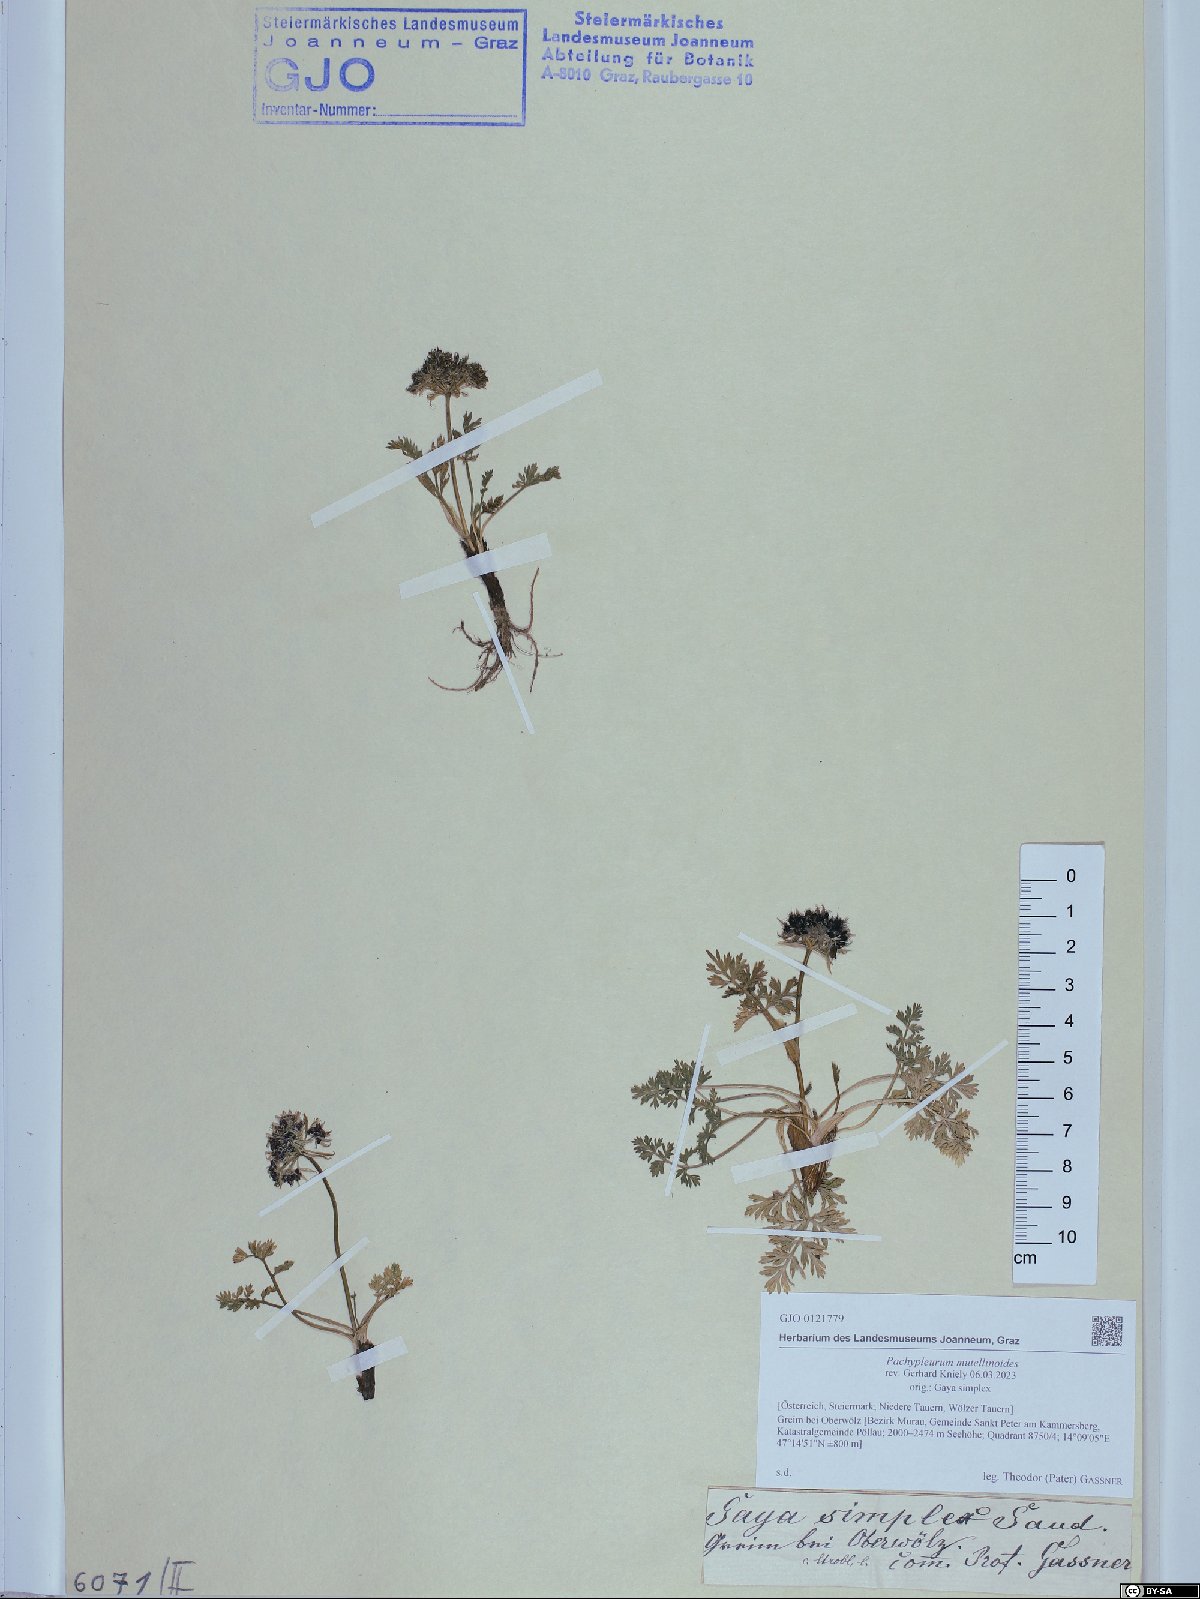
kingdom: Plantae
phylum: Tracheophyta
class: Magnoliopsida
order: Apiales
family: Apiaceae
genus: Pachypleurum
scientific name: Pachypleurum mutellinoides
